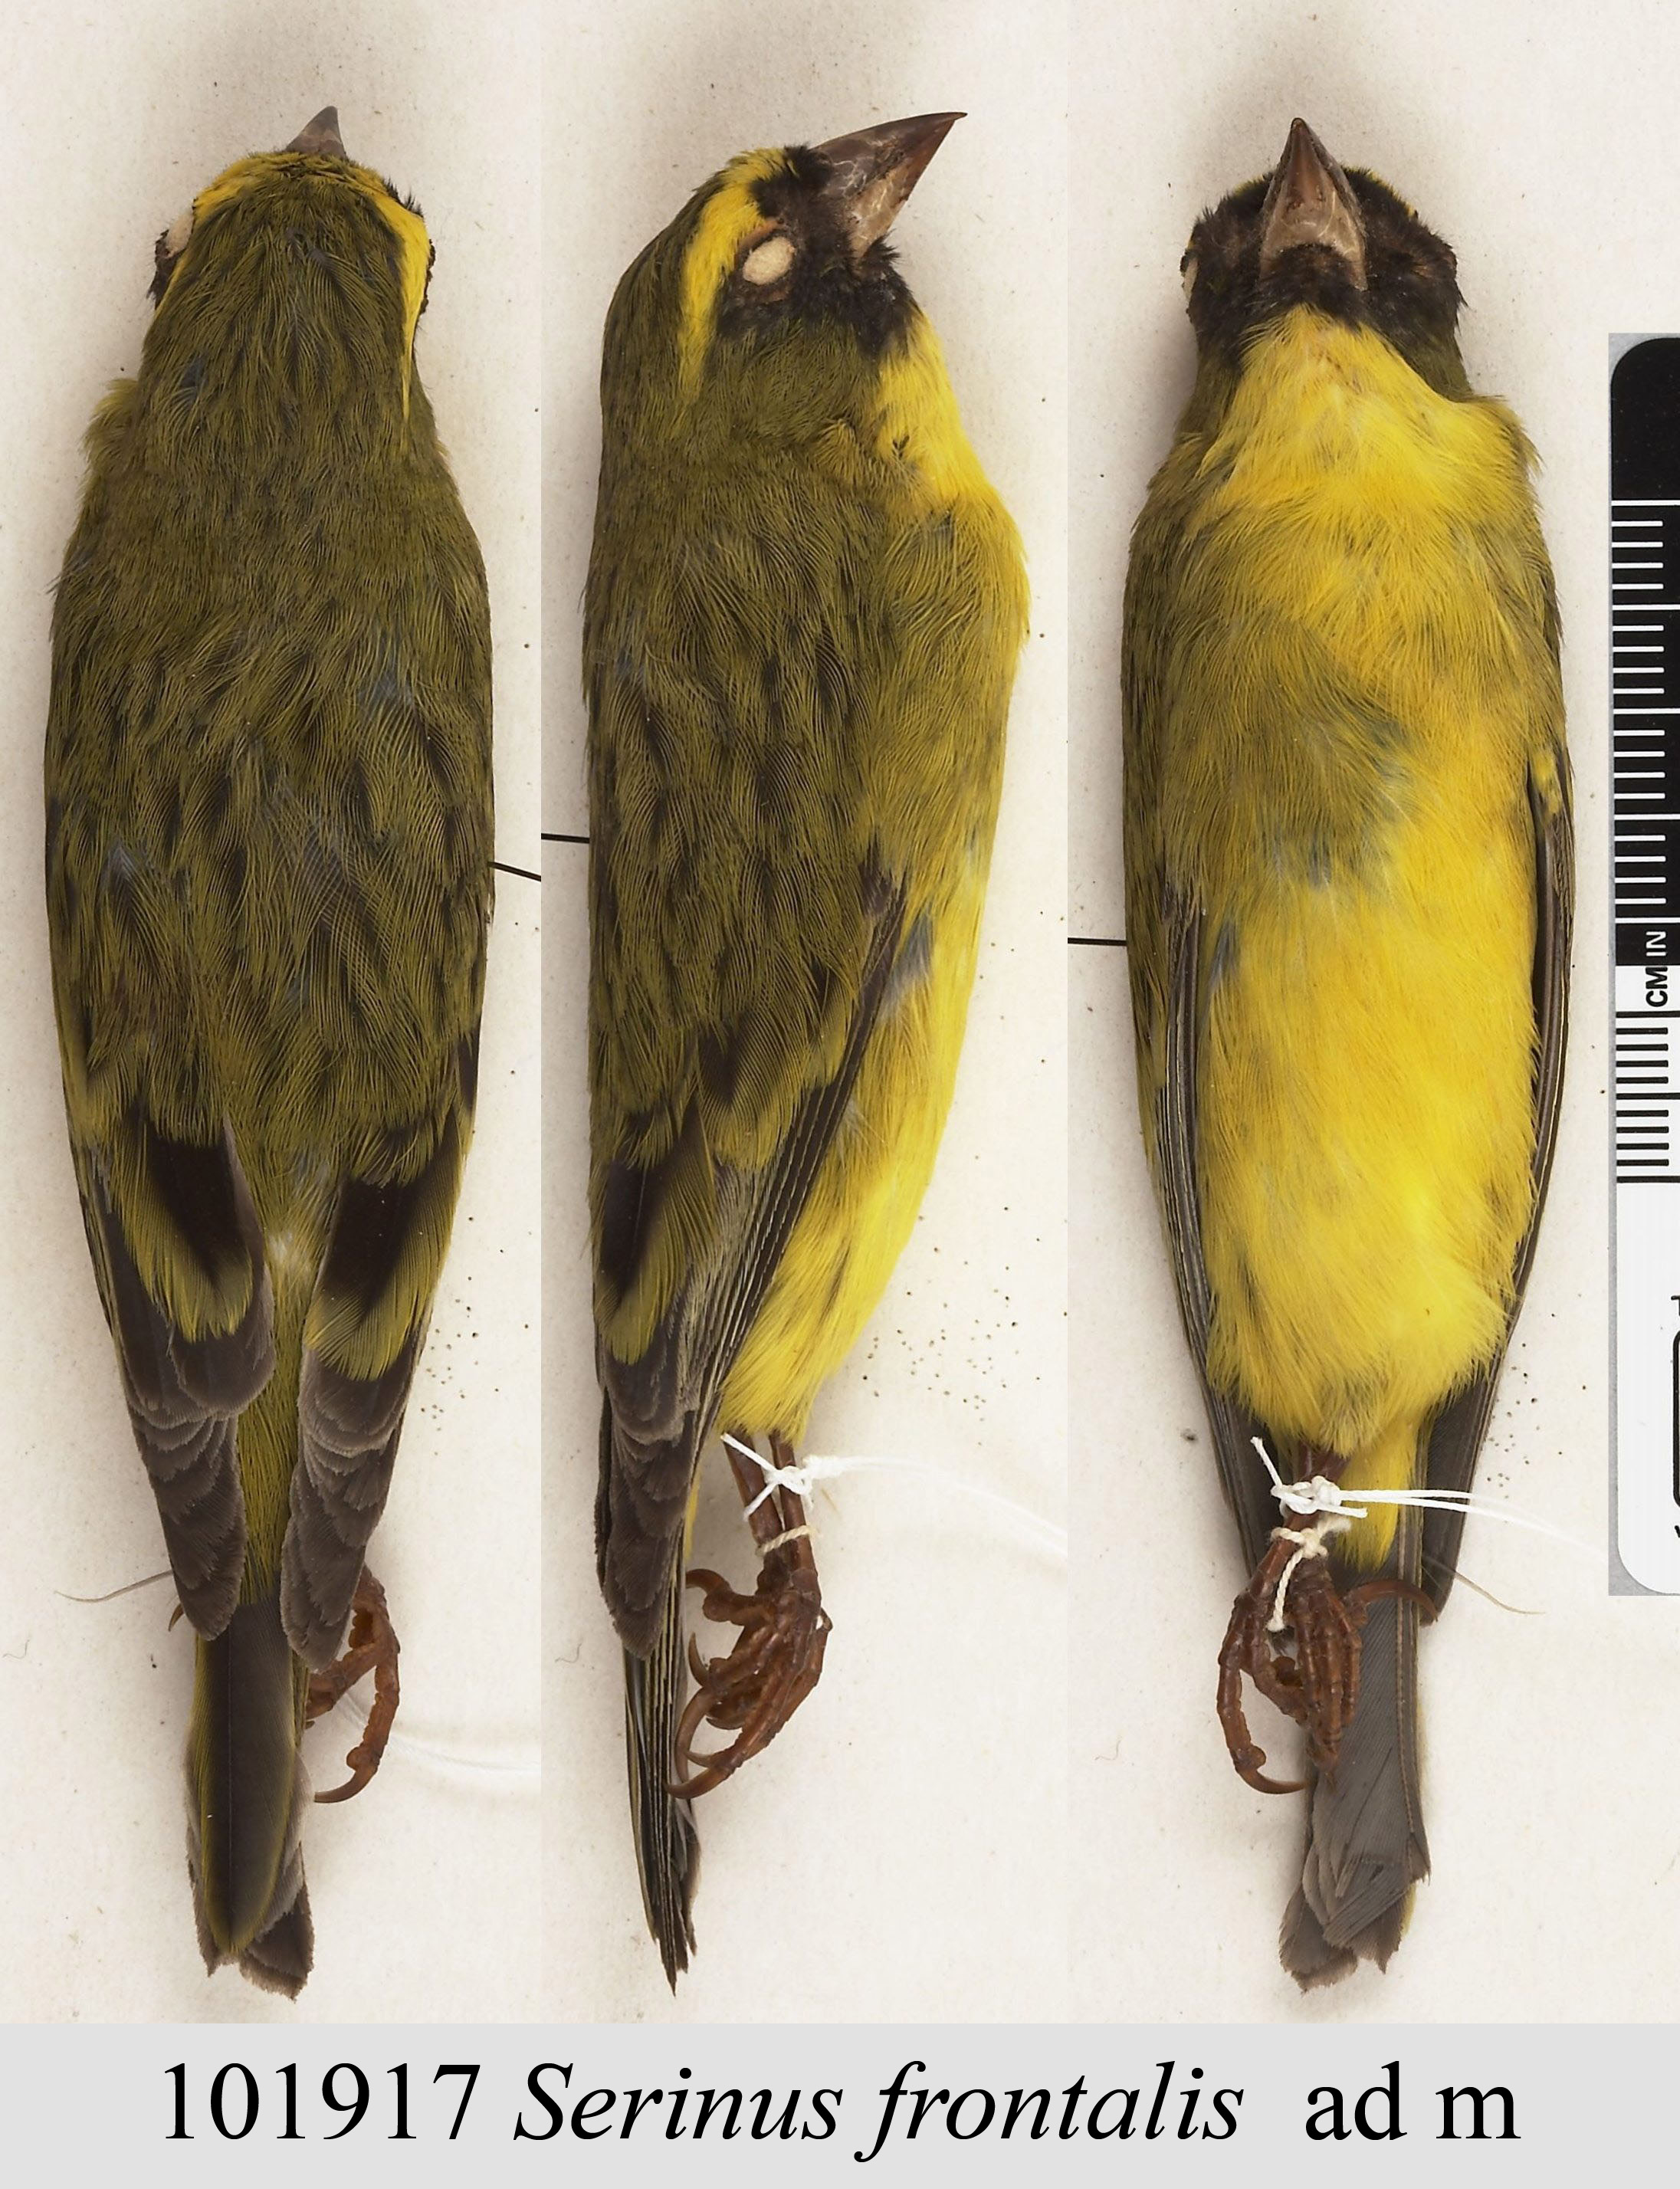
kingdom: Animalia
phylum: Chordata
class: Aves
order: Passeriformes
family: Fringillidae
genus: Crithagra
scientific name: Crithagra frontalis
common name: Western citril
